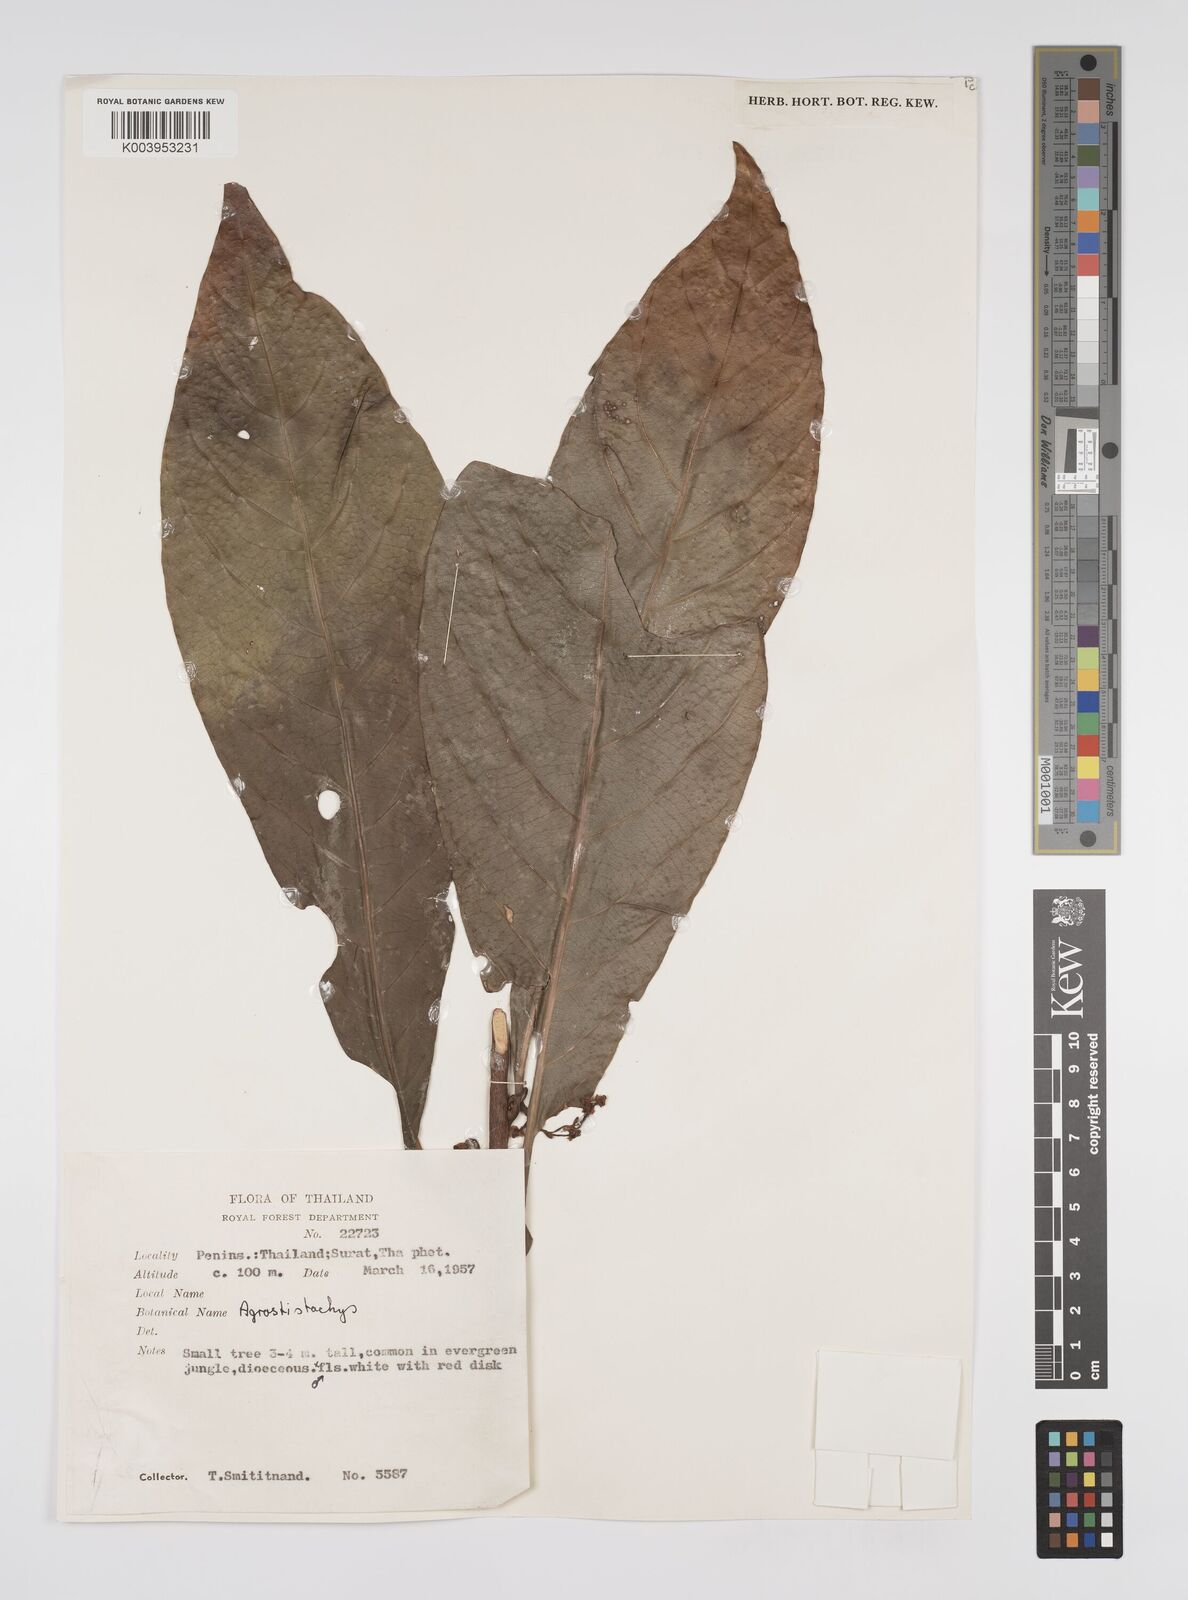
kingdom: Plantae
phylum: Tracheophyta
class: Magnoliopsida
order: Malpighiales
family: Euphorbiaceae
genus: Agrostistachys
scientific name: Agrostistachys gaudichaudii
